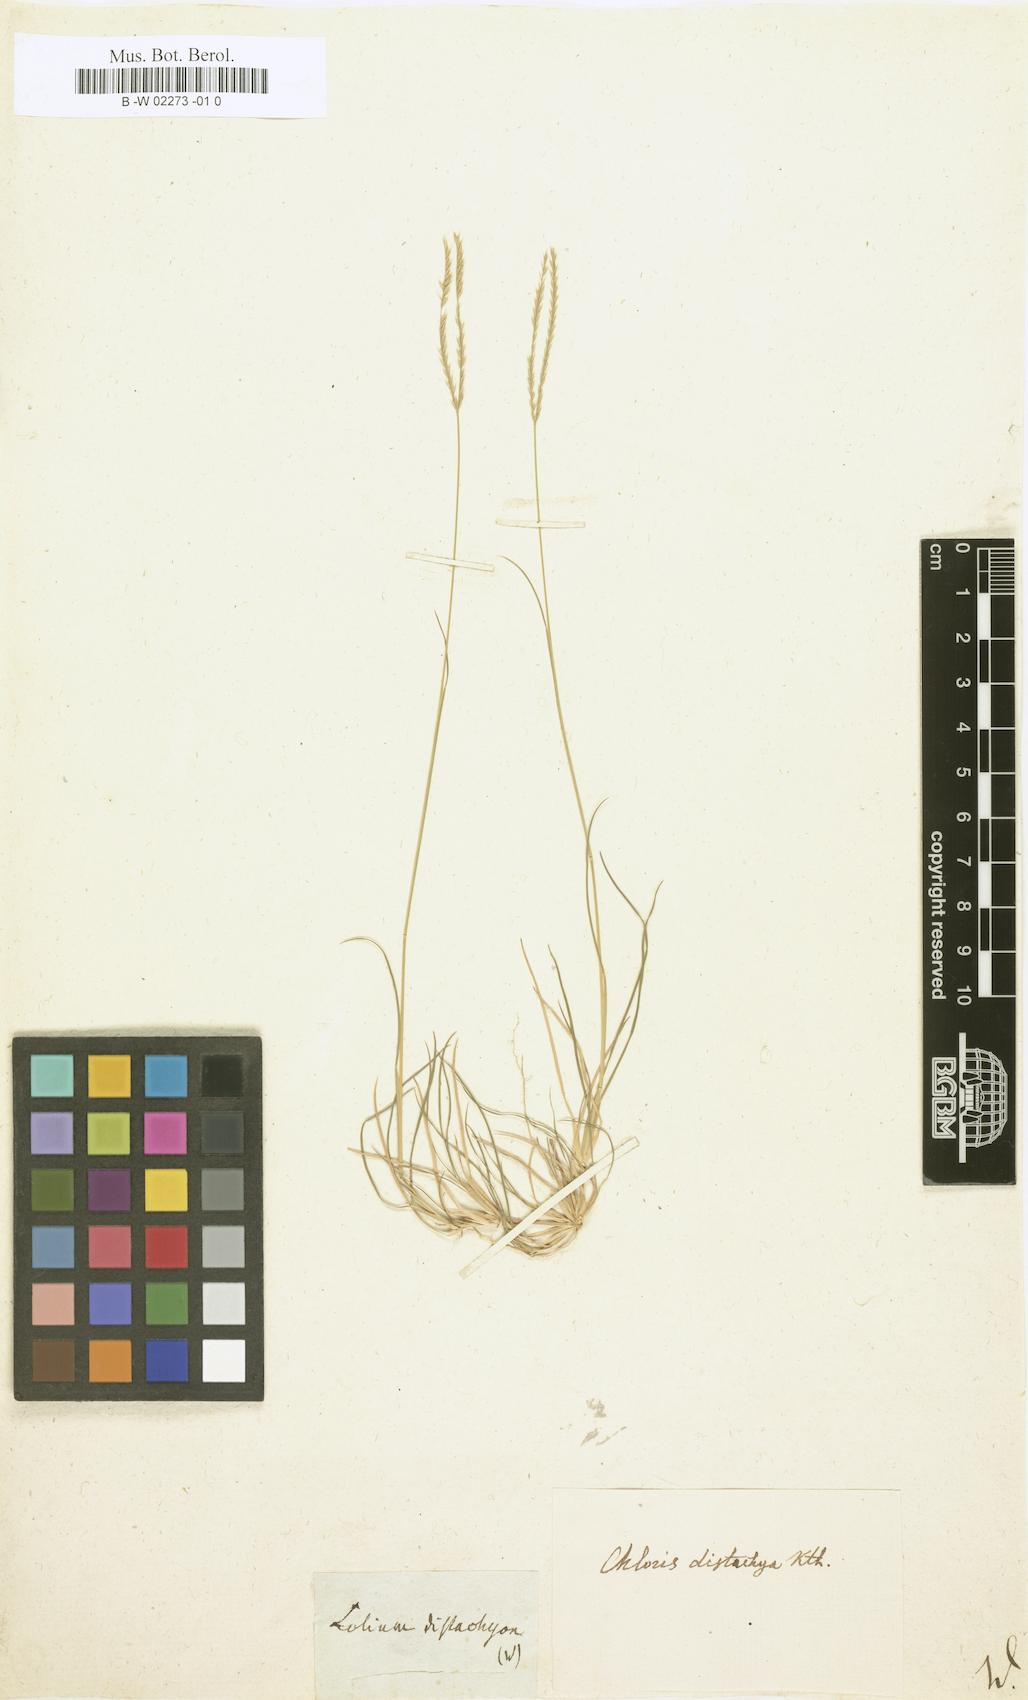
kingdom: Plantae
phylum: Tracheophyta
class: Liliopsida
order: Poales
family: Poaceae
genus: Lolium
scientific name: Lolium distachyon
